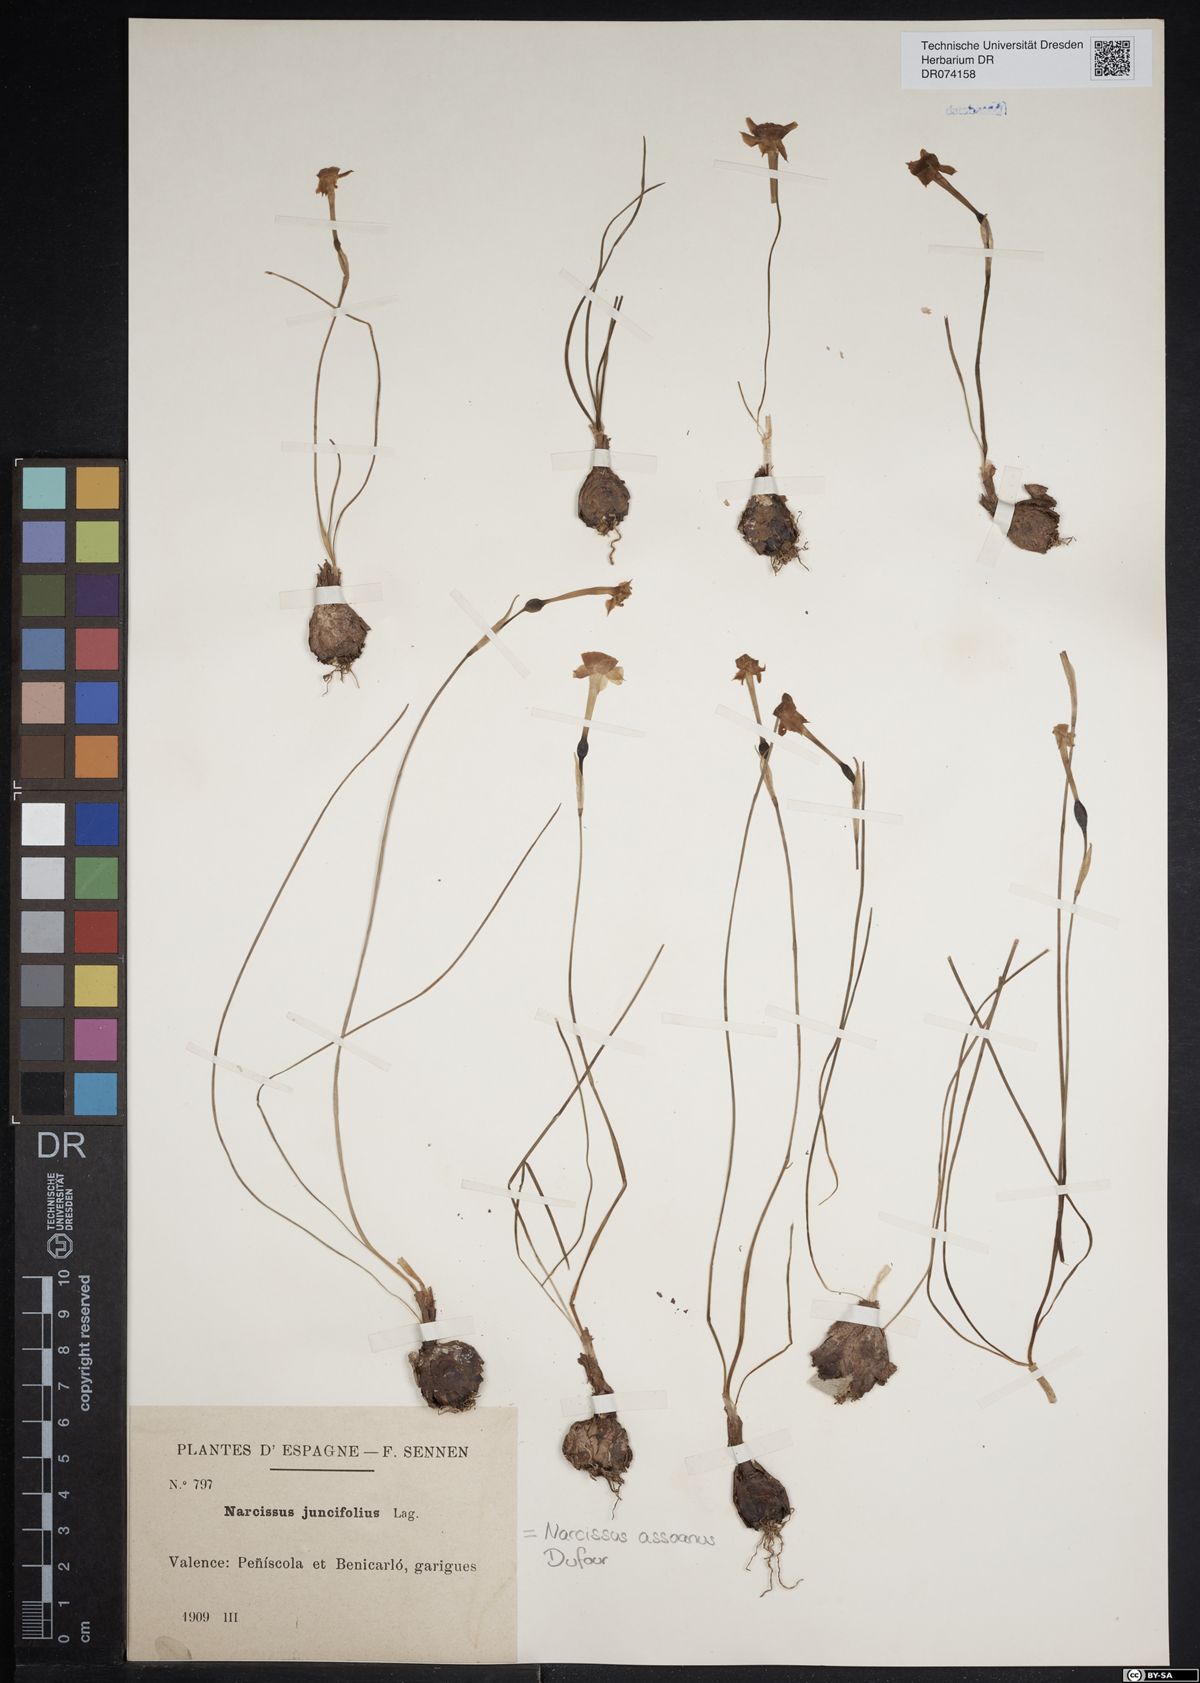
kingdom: Plantae
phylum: Tracheophyta
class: Liliopsida
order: Asparagales
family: Amaryllidaceae
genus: Narcissus
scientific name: Narcissus assoanus
